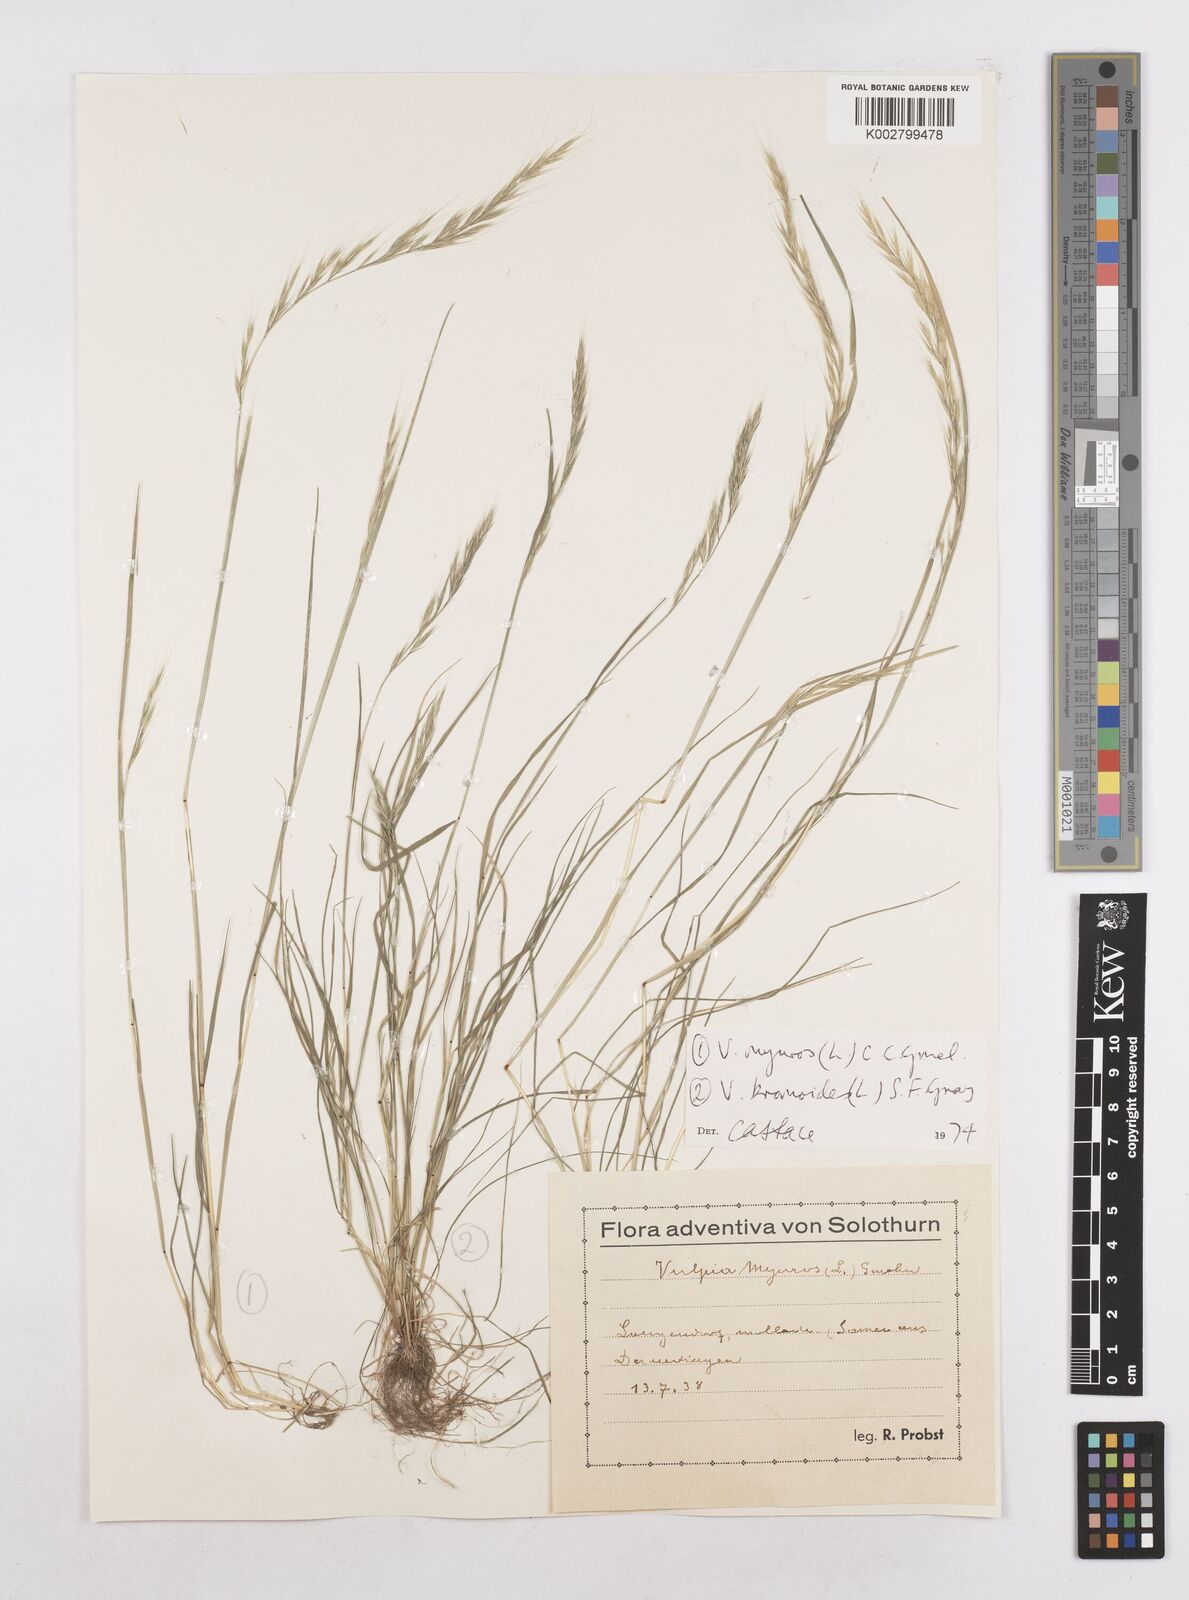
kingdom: Plantae
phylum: Tracheophyta
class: Liliopsida
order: Poales
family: Poaceae
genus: Festuca
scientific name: Festuca myuros
